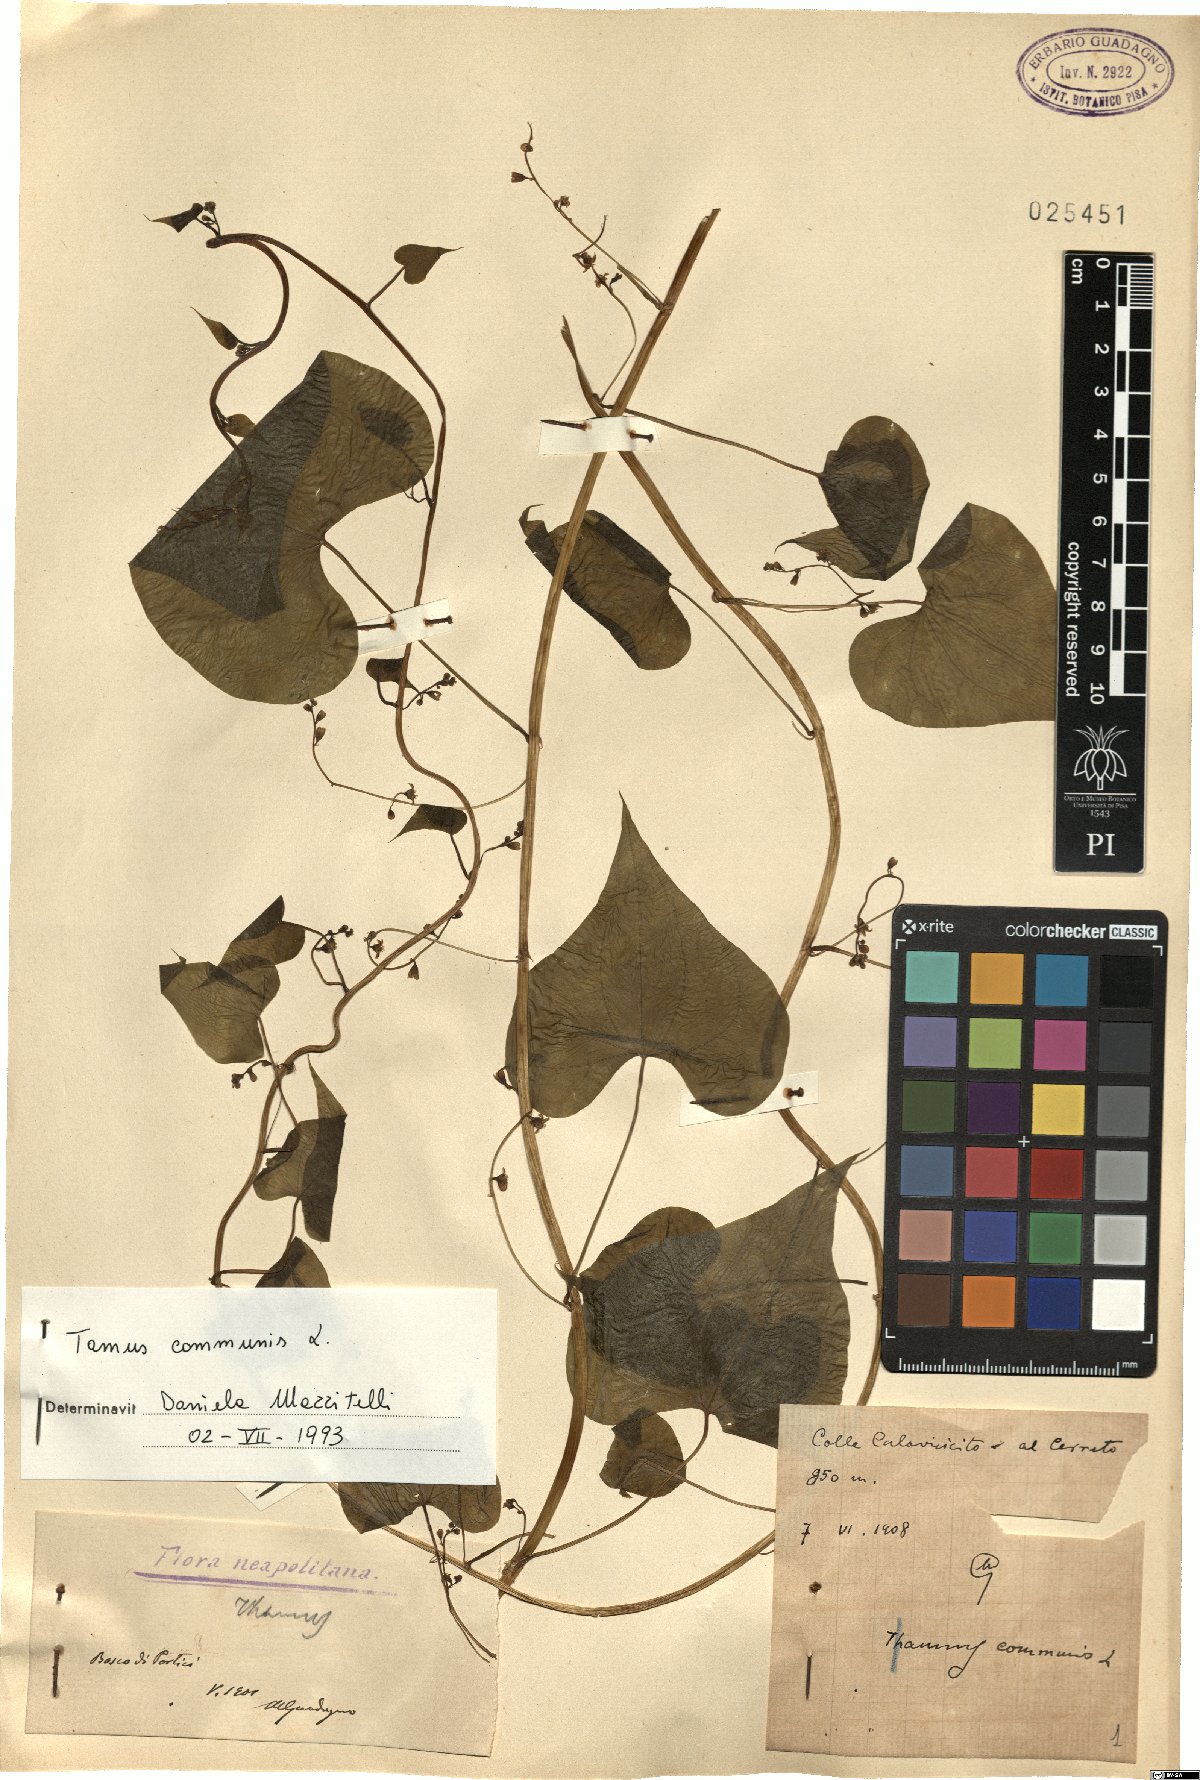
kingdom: Plantae
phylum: Tracheophyta
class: Liliopsida
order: Dioscoreales
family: Dioscoreaceae
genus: Dioscorea
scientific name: Dioscorea communis
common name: Black-bindweed
